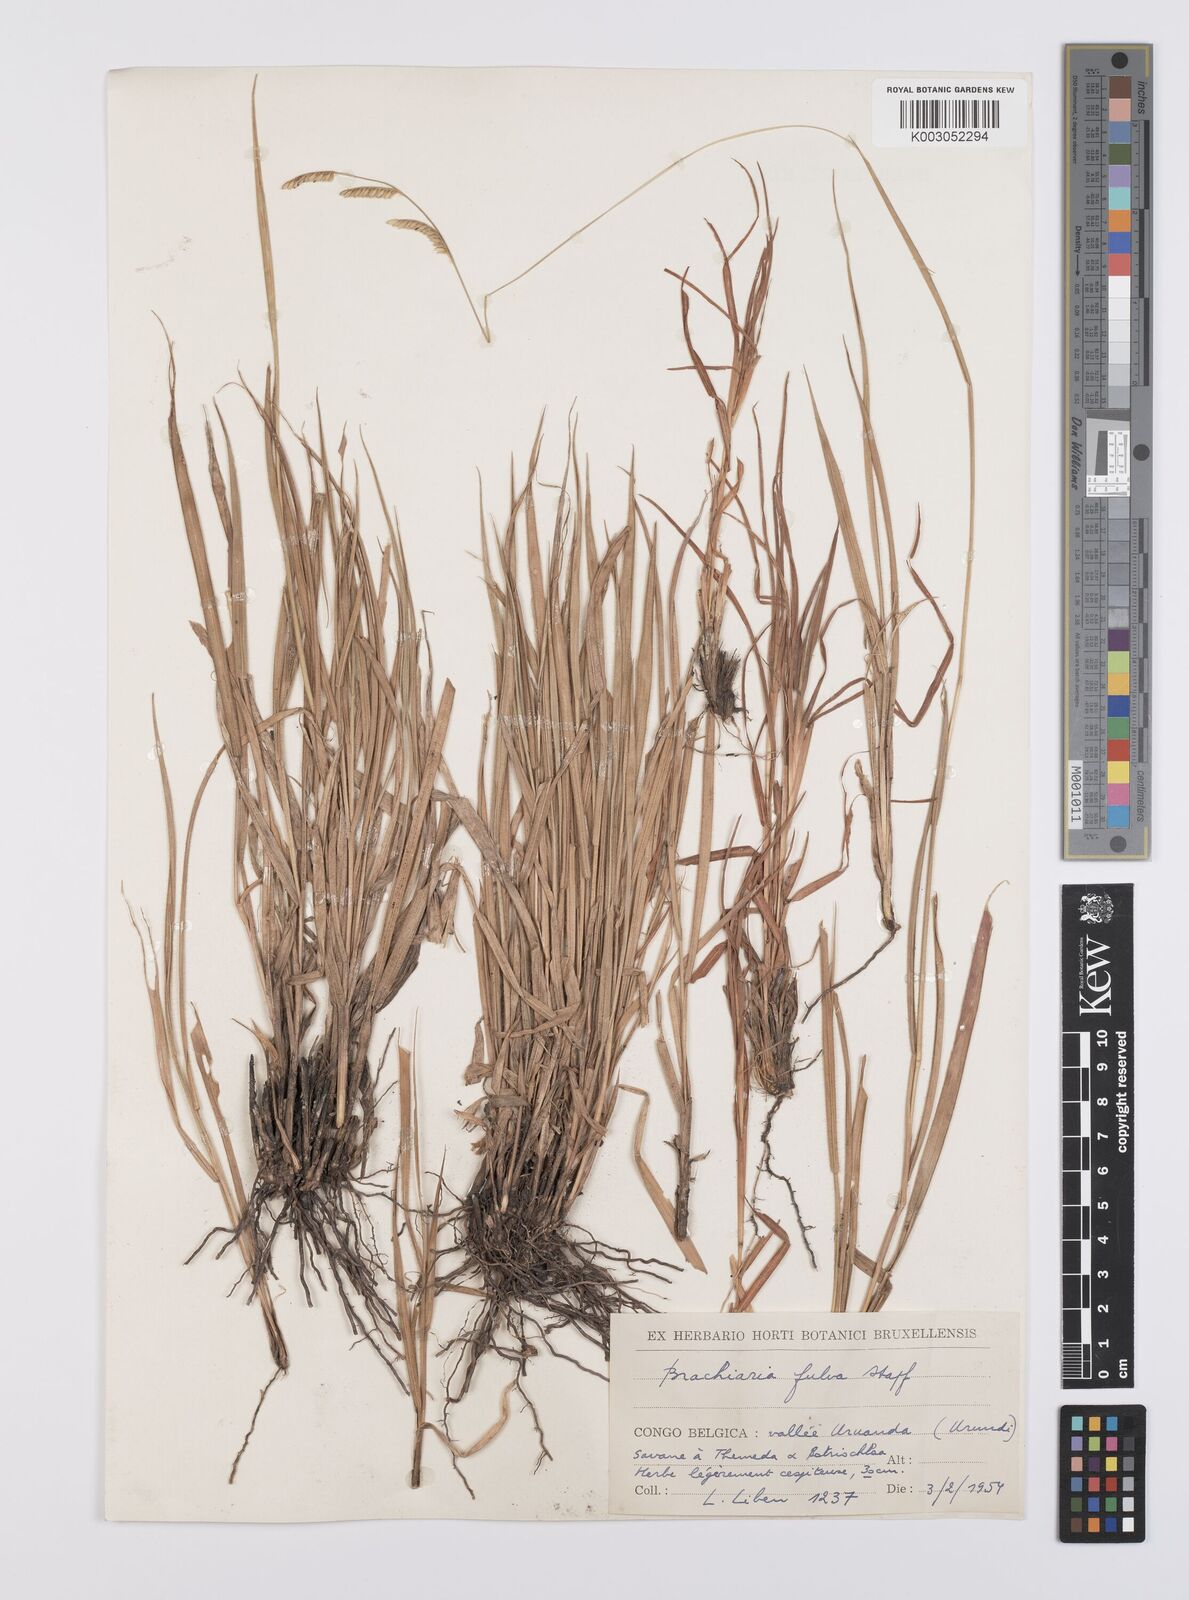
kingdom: Plantae
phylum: Tracheophyta
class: Liliopsida
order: Poales
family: Poaceae
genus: Urochloa
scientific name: Urochloa jubata
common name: Buffalograss
